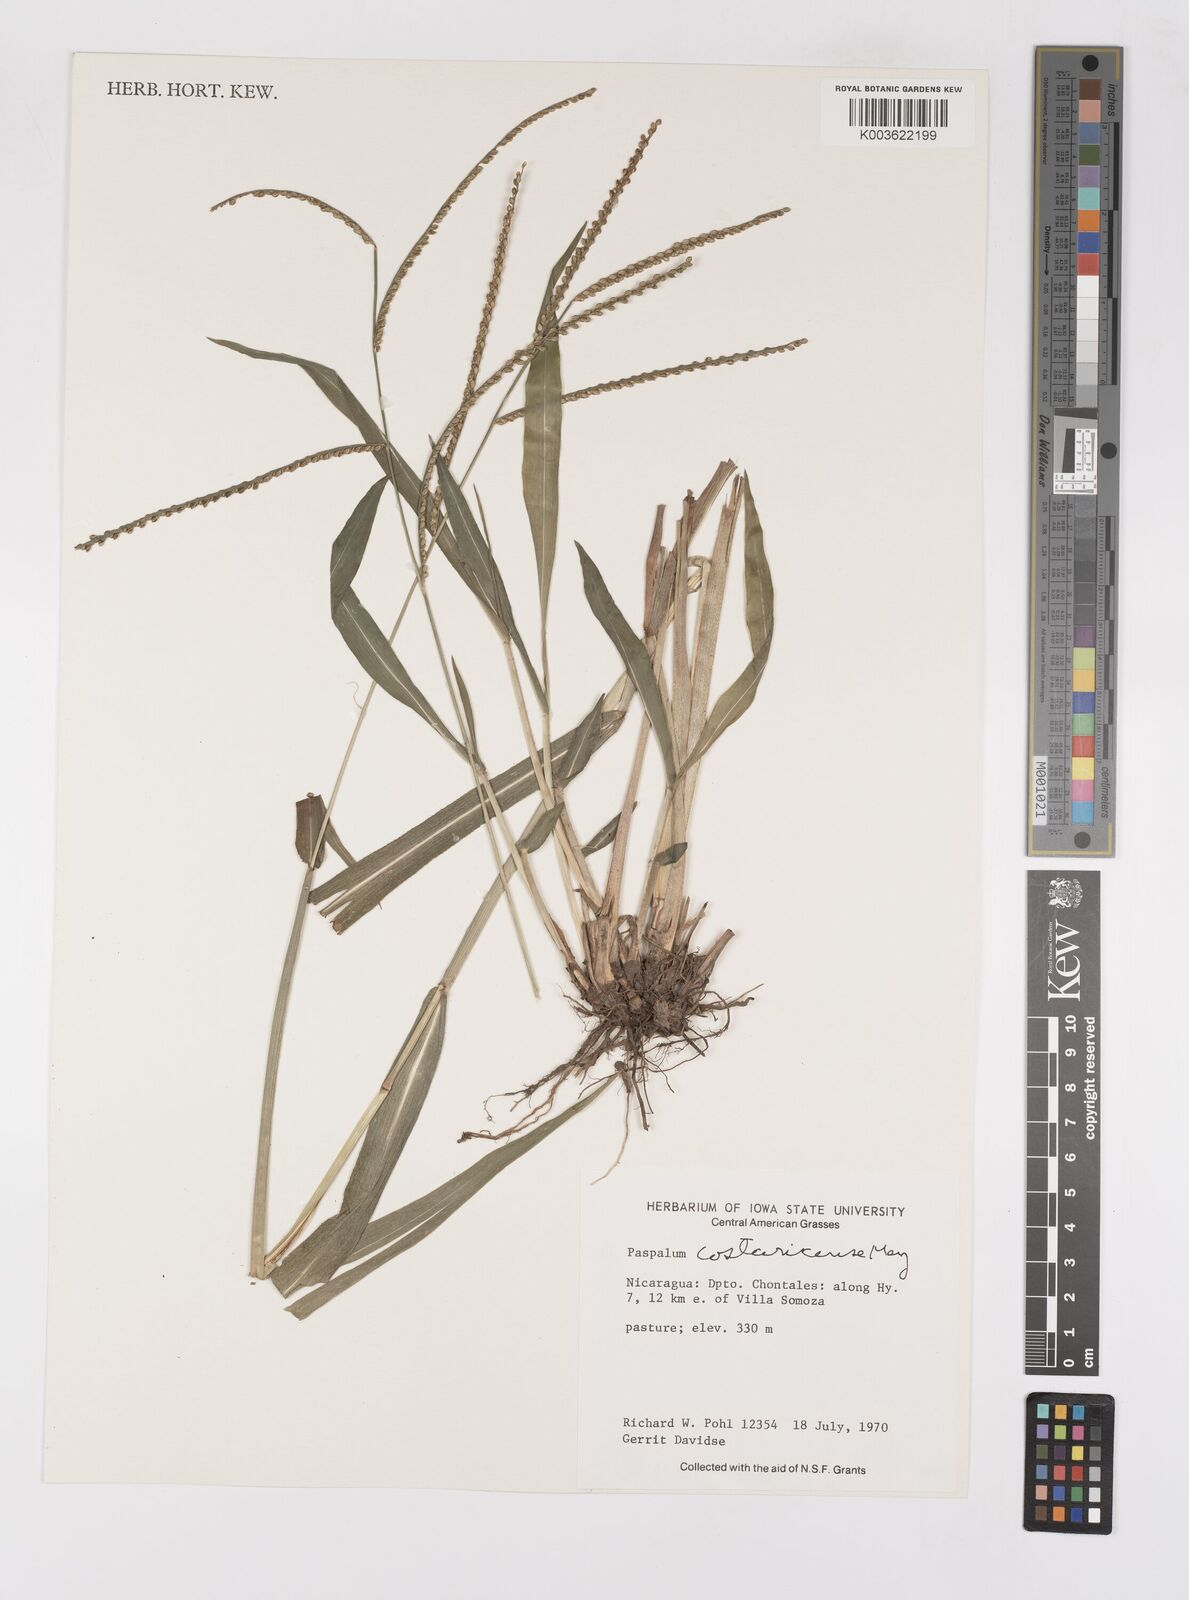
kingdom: Plantae
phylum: Tracheophyta
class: Liliopsida
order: Poales
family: Poaceae
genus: Paspalum
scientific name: Paspalum costaricense
